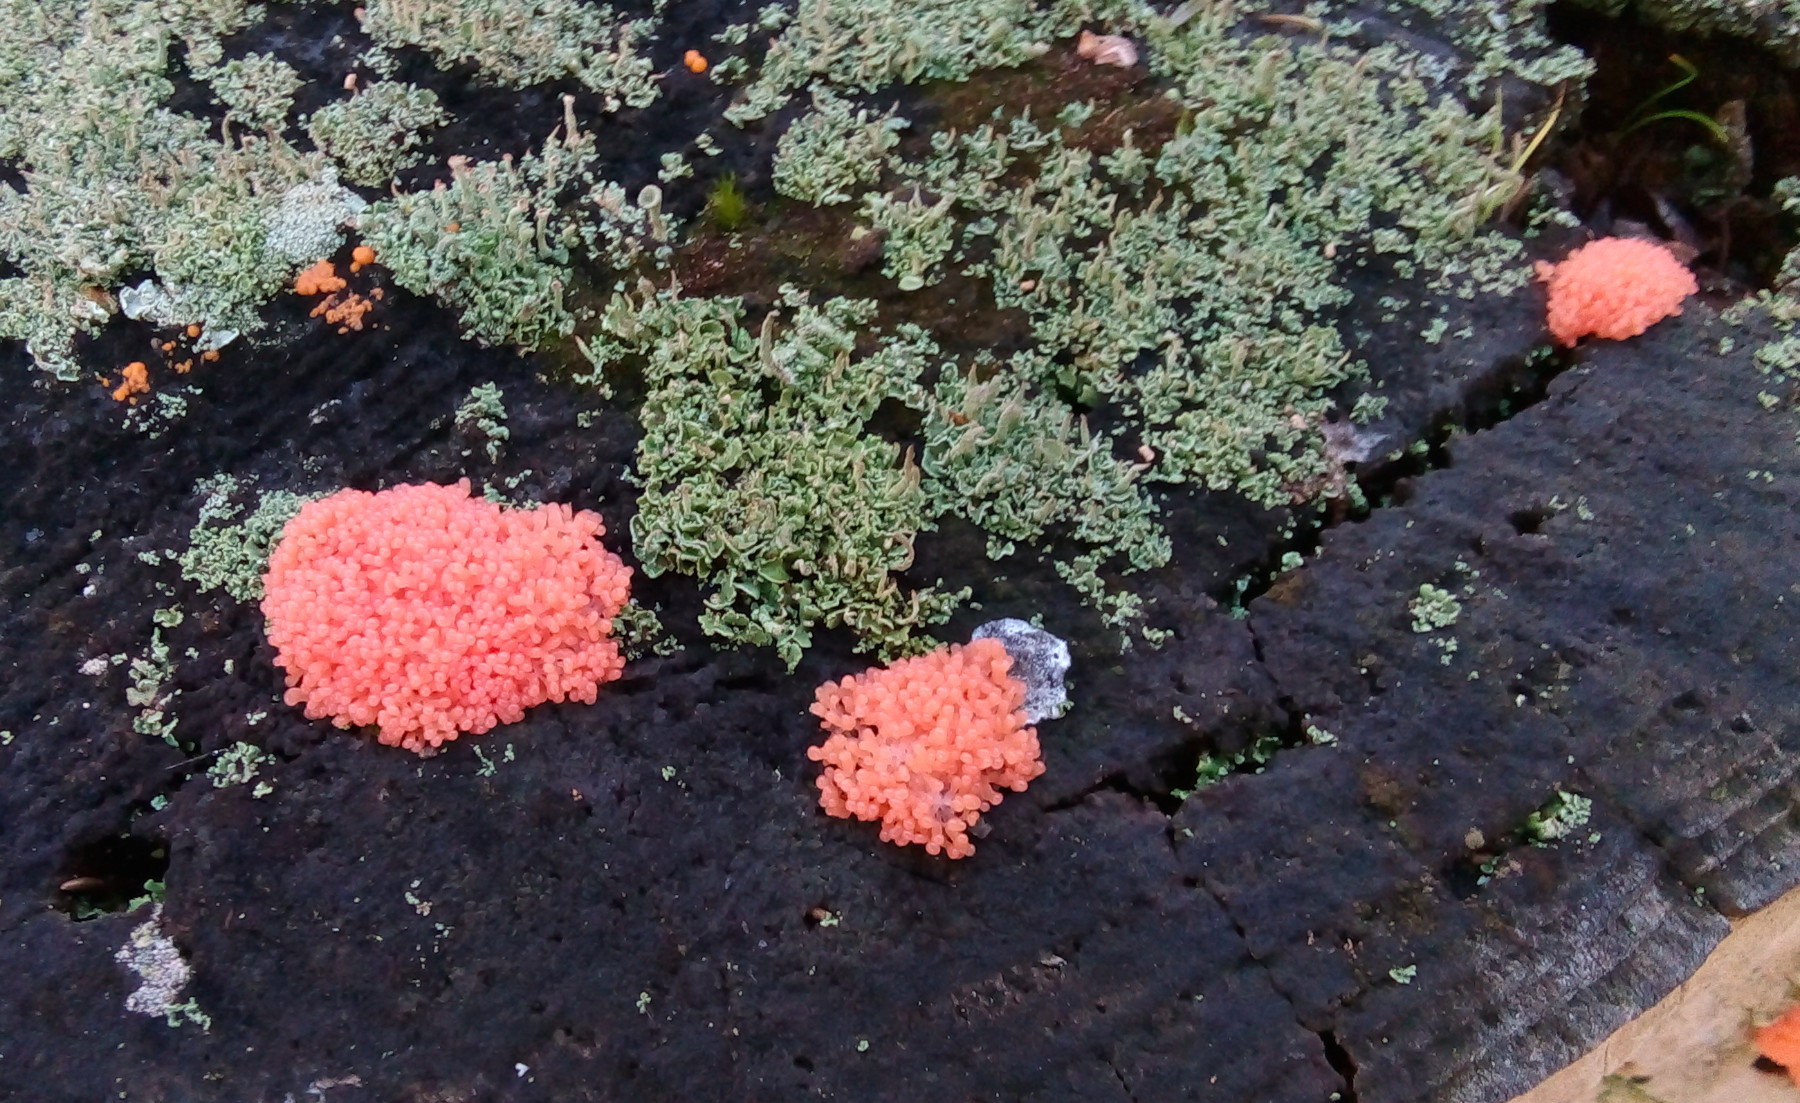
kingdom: Protozoa
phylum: Mycetozoa
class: Myxomycetes
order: Cribrariales
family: Tubiferaceae
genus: Tubifera
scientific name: Tubifera ferruginosa
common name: kanel-støvrør
